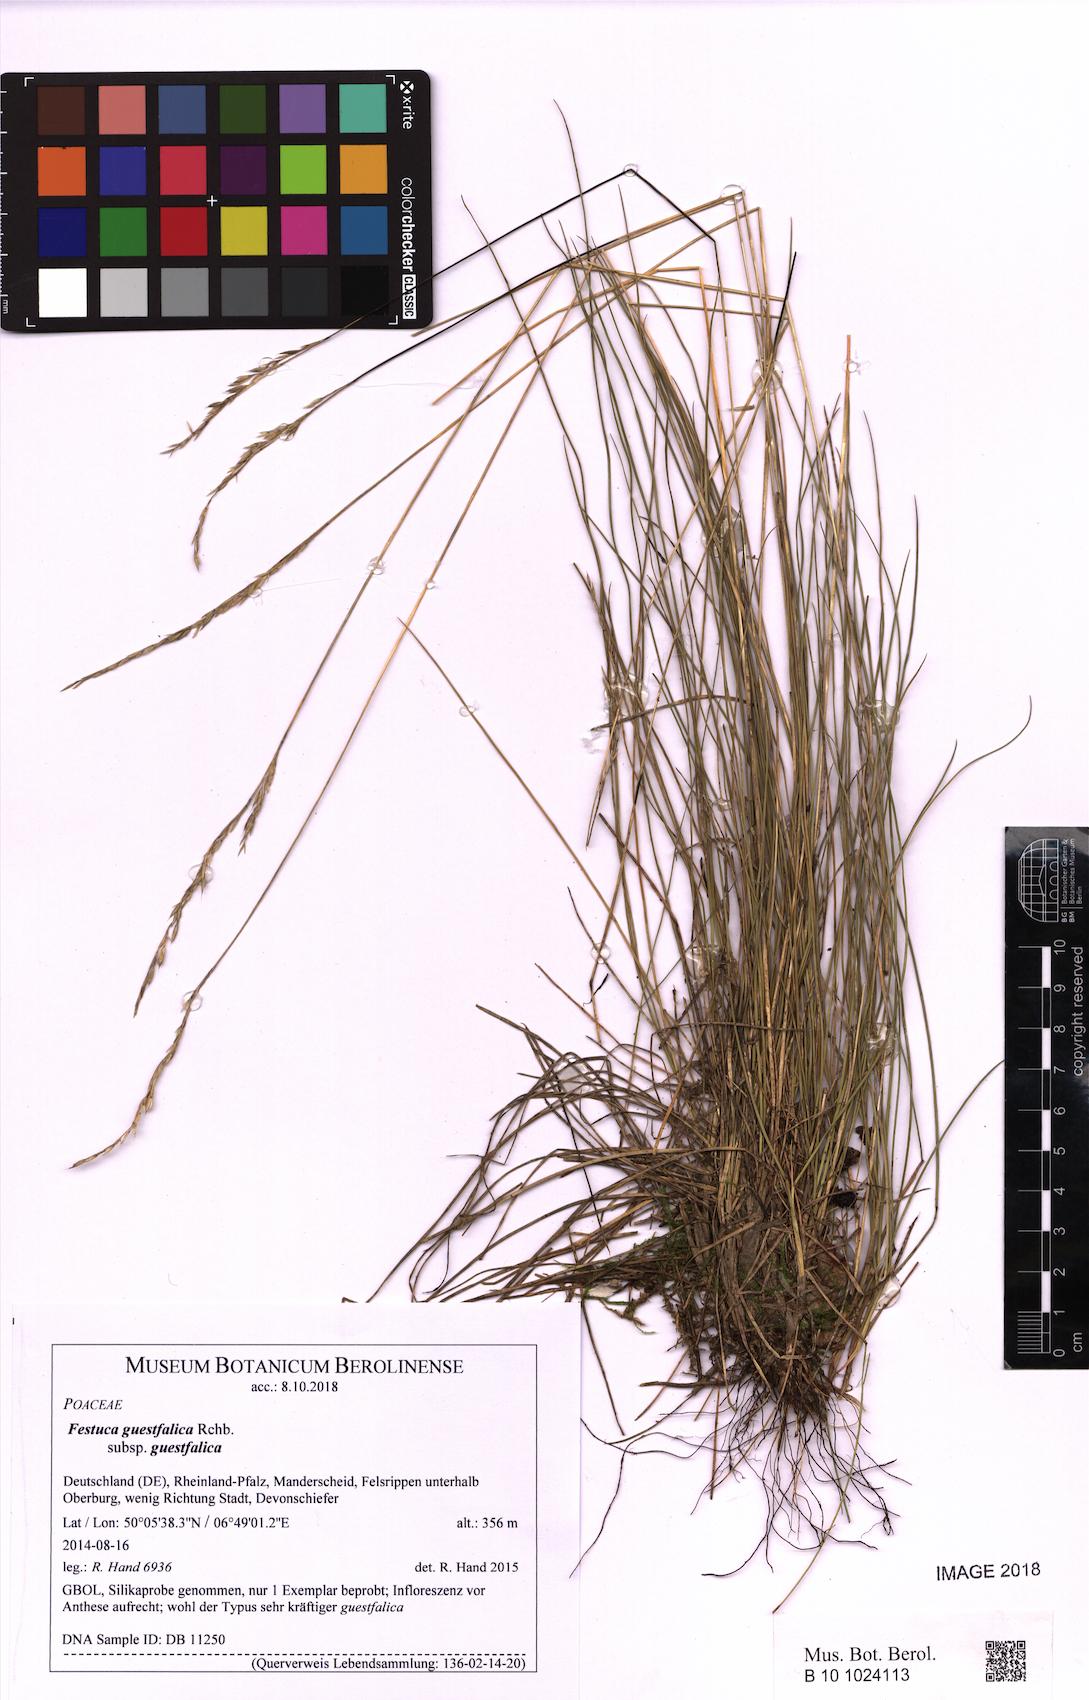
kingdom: Plantae
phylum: Tracheophyta
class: Liliopsida
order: Poales
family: Poaceae
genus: Festuca
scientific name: Festuca guestfalica
